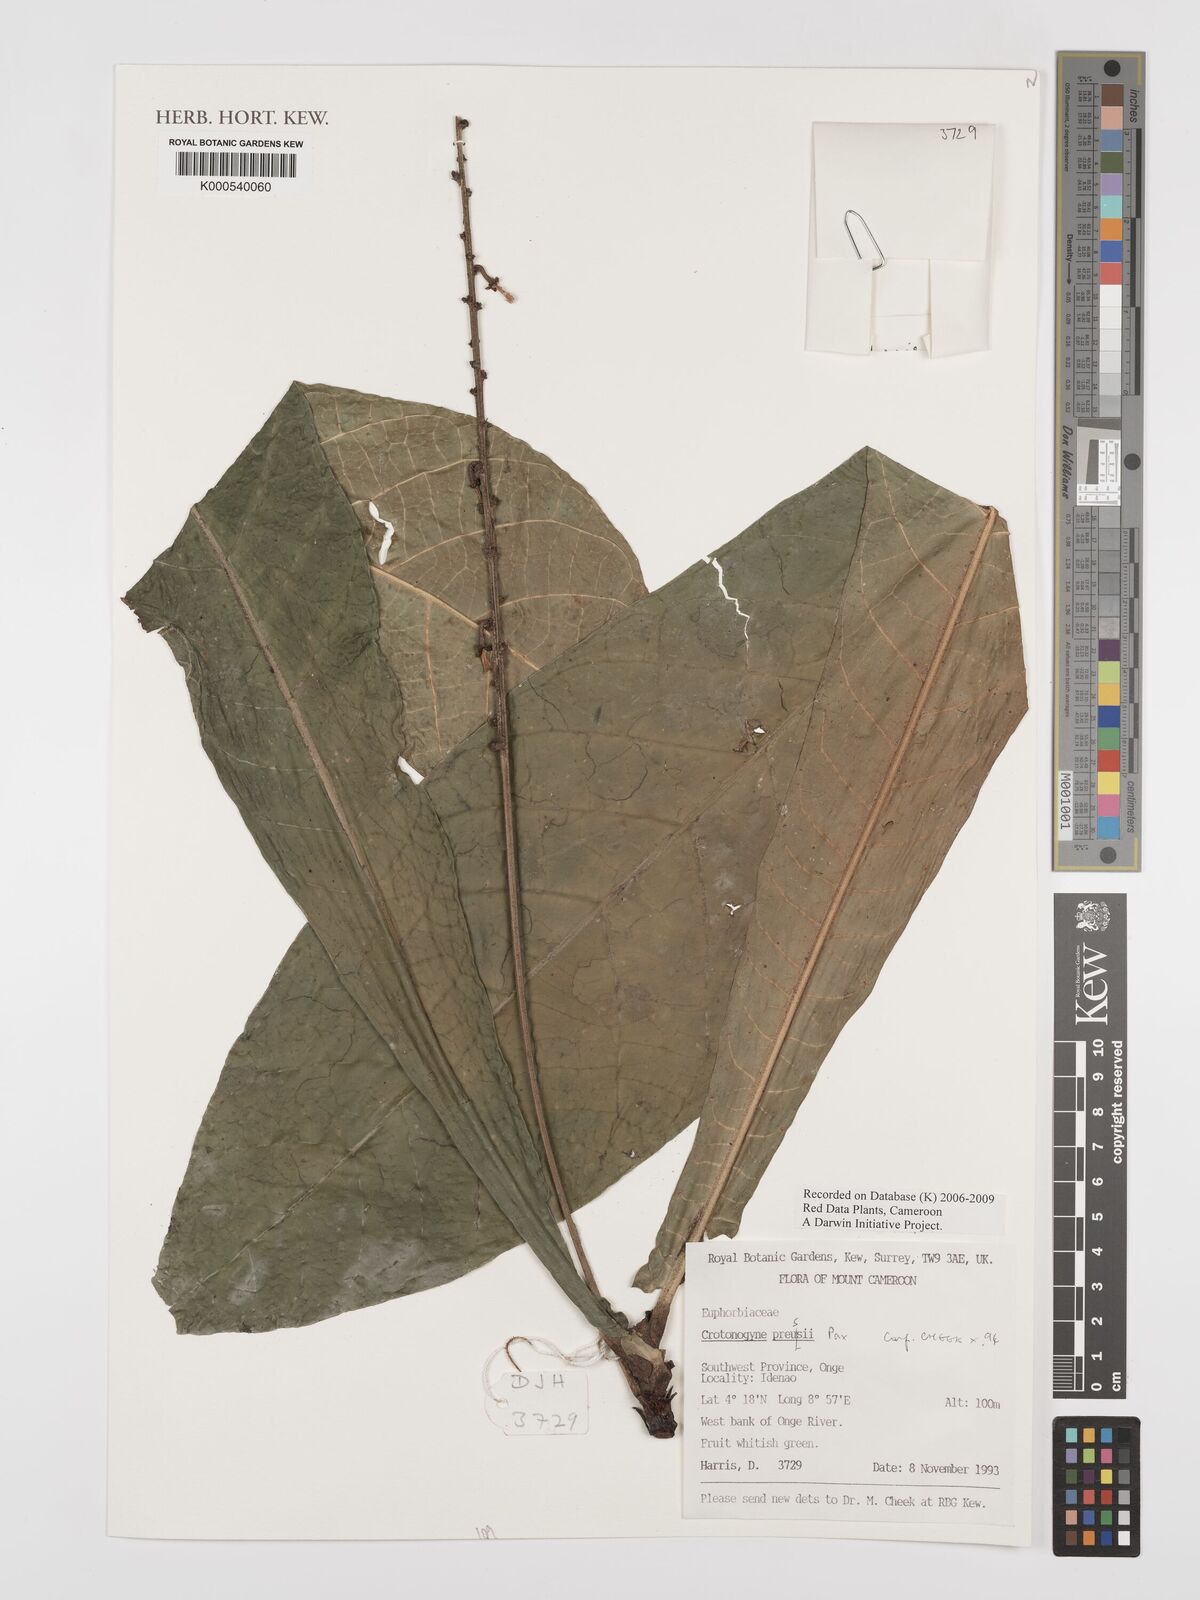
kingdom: Plantae
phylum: Tracheophyta
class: Magnoliopsida
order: Malpighiales
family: Euphorbiaceae
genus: Crotonogyne
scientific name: Crotonogyne preussii
